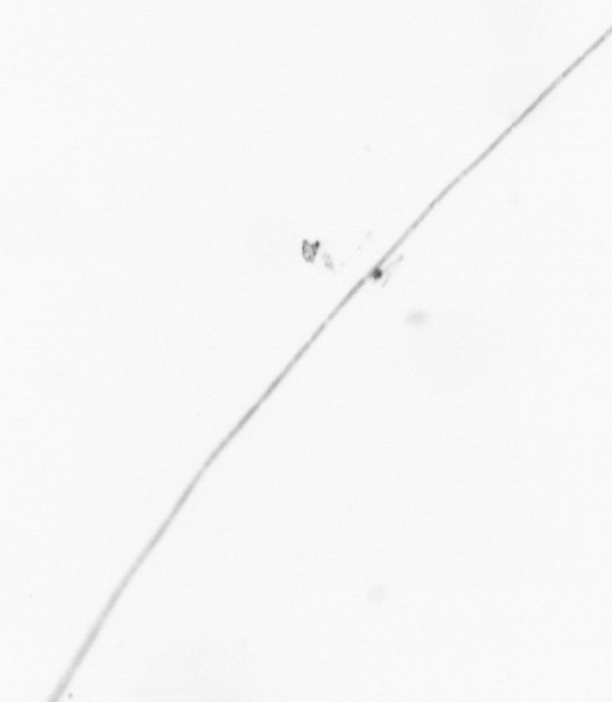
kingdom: Chromista
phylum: Ochrophyta
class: Bacillariophyceae
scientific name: Bacillariophyceae
